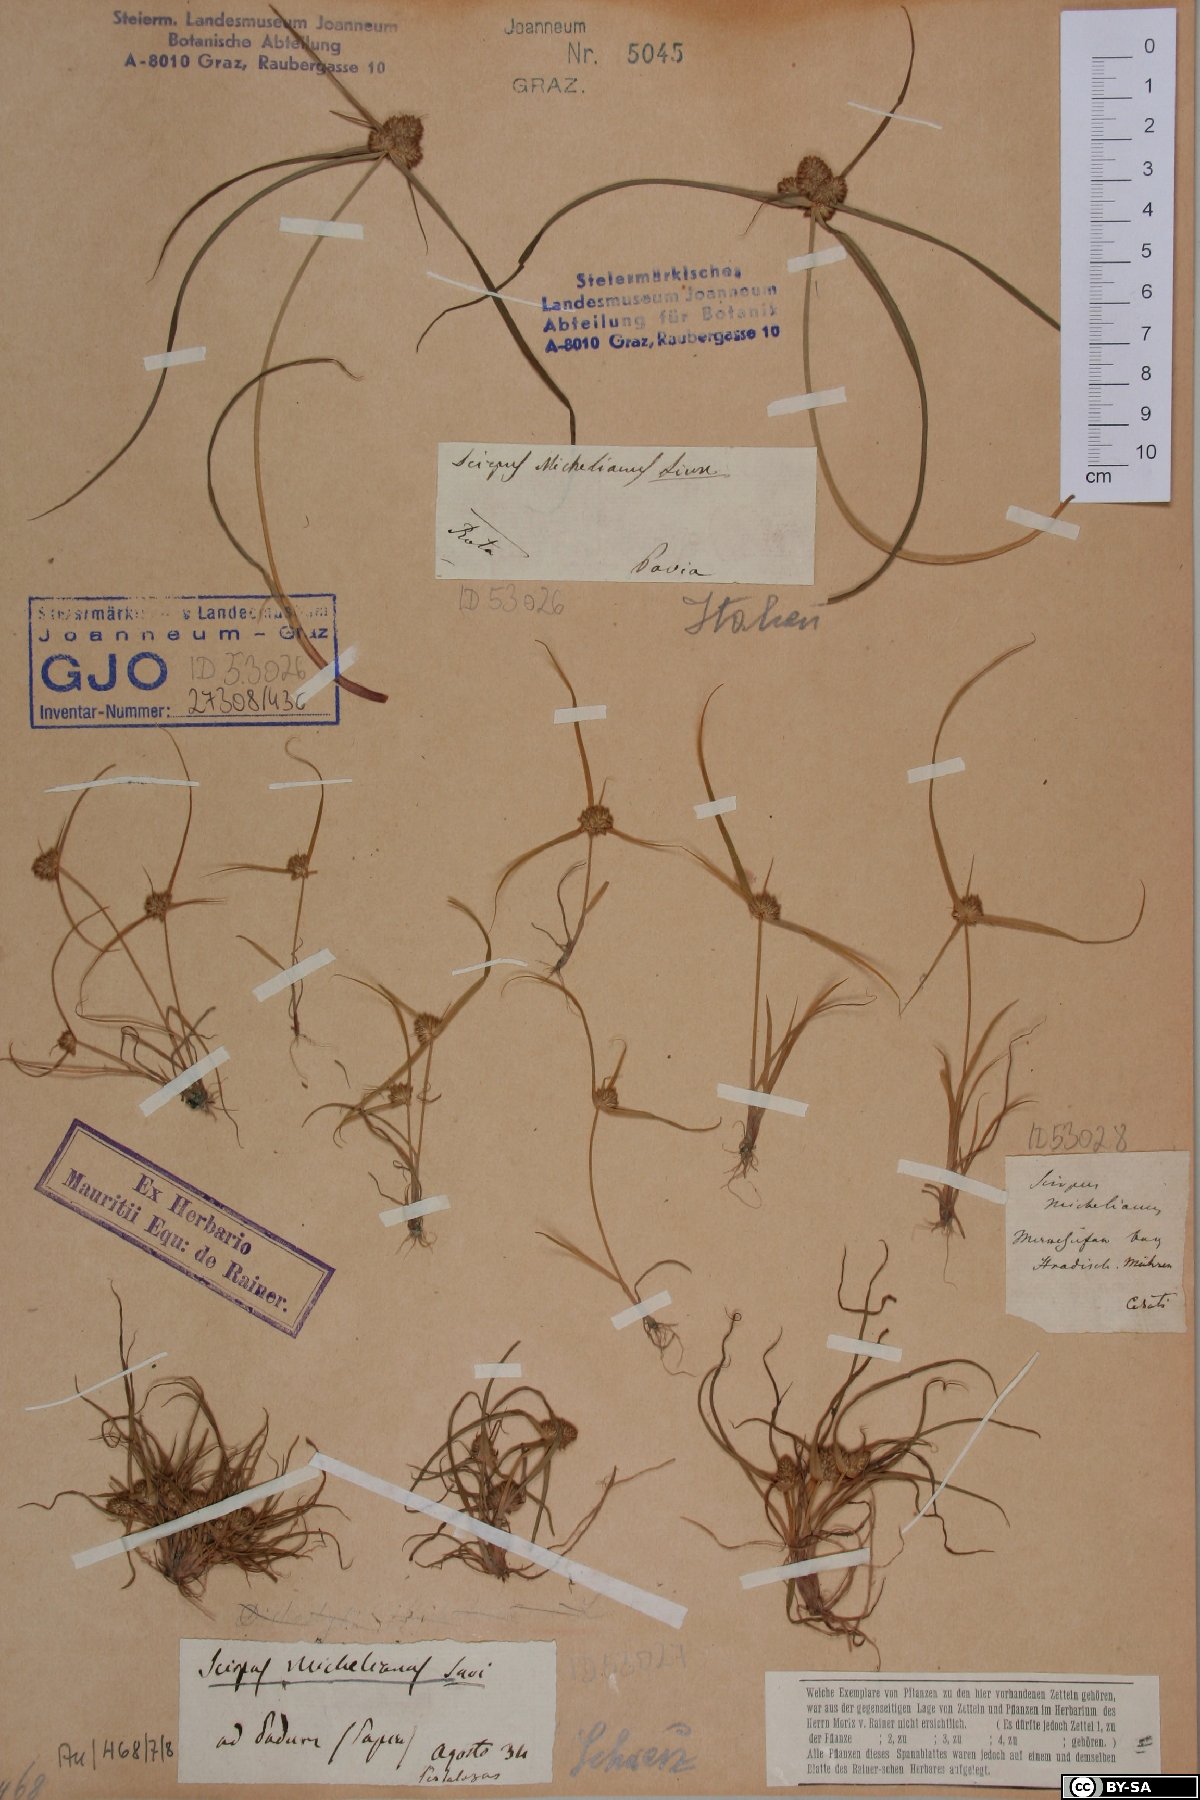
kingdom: Plantae
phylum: Tracheophyta
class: Liliopsida
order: Poales
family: Cyperaceae
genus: Cyperus
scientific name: Cyperus michelianus
